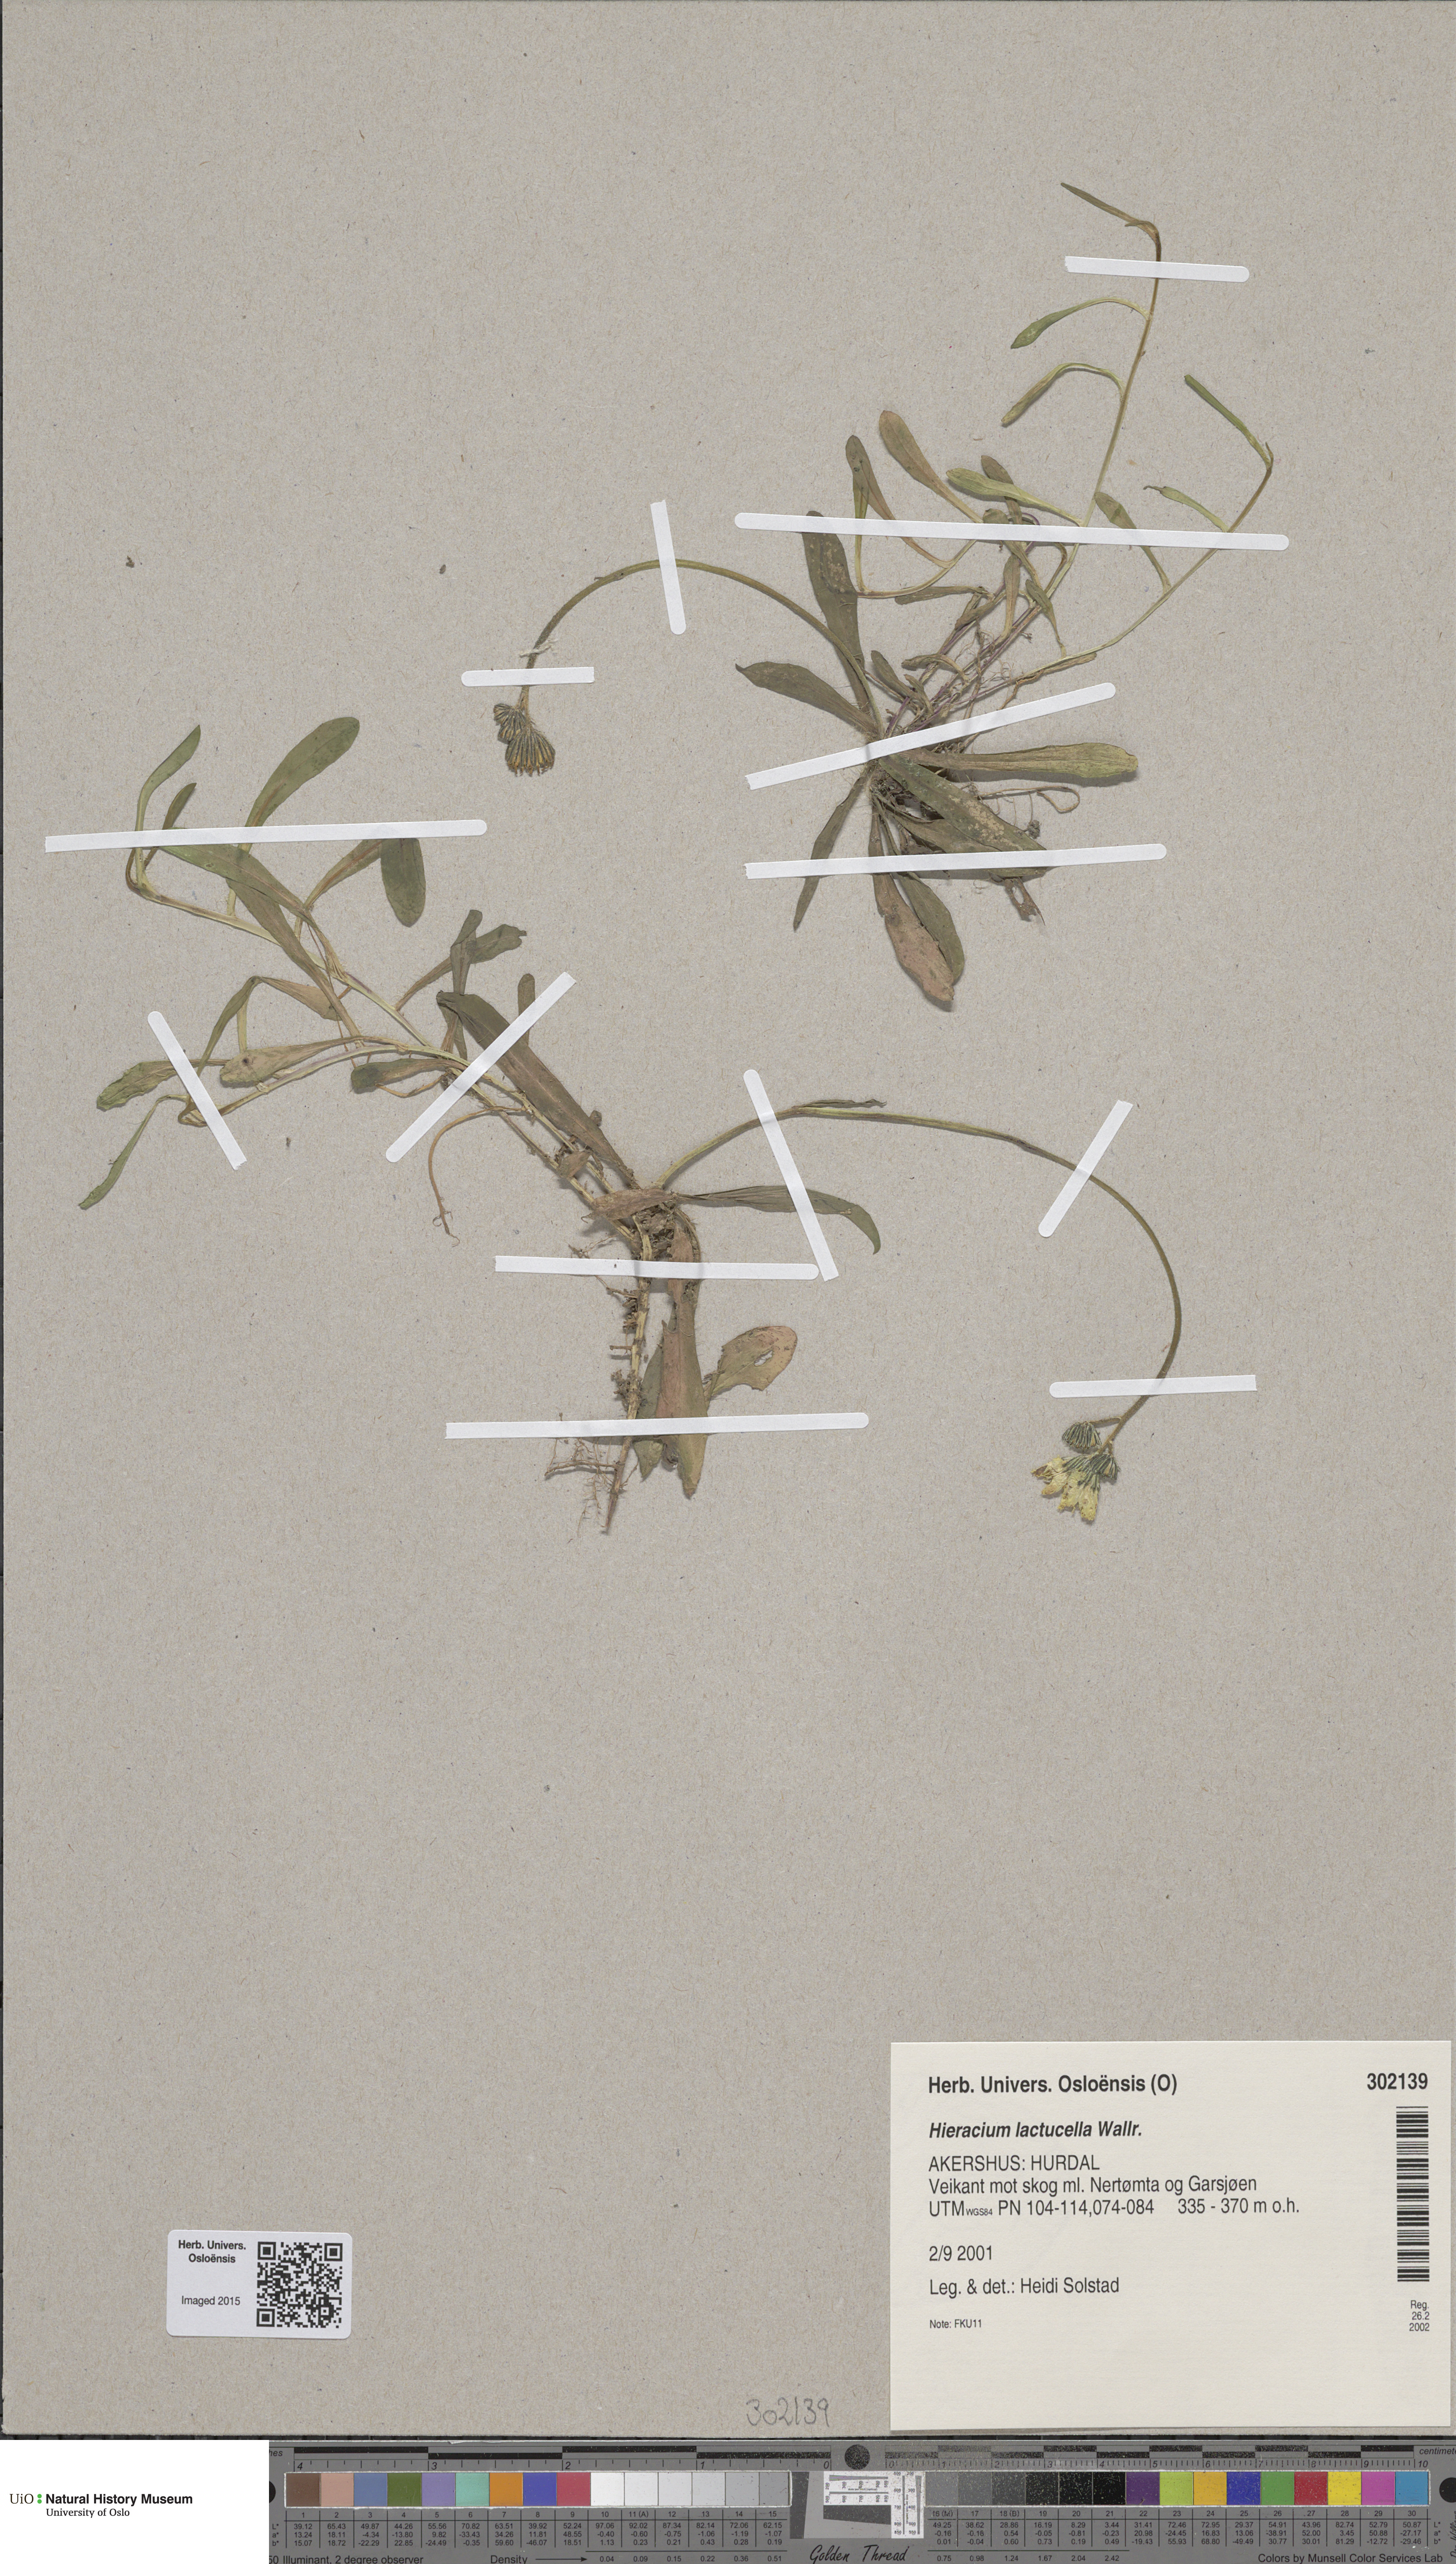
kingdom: Plantae
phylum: Tracheophyta
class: Magnoliopsida
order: Asterales
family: Asteraceae
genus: Pilosella
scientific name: Pilosella lactucella
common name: Glaucous fox-and-cubs
